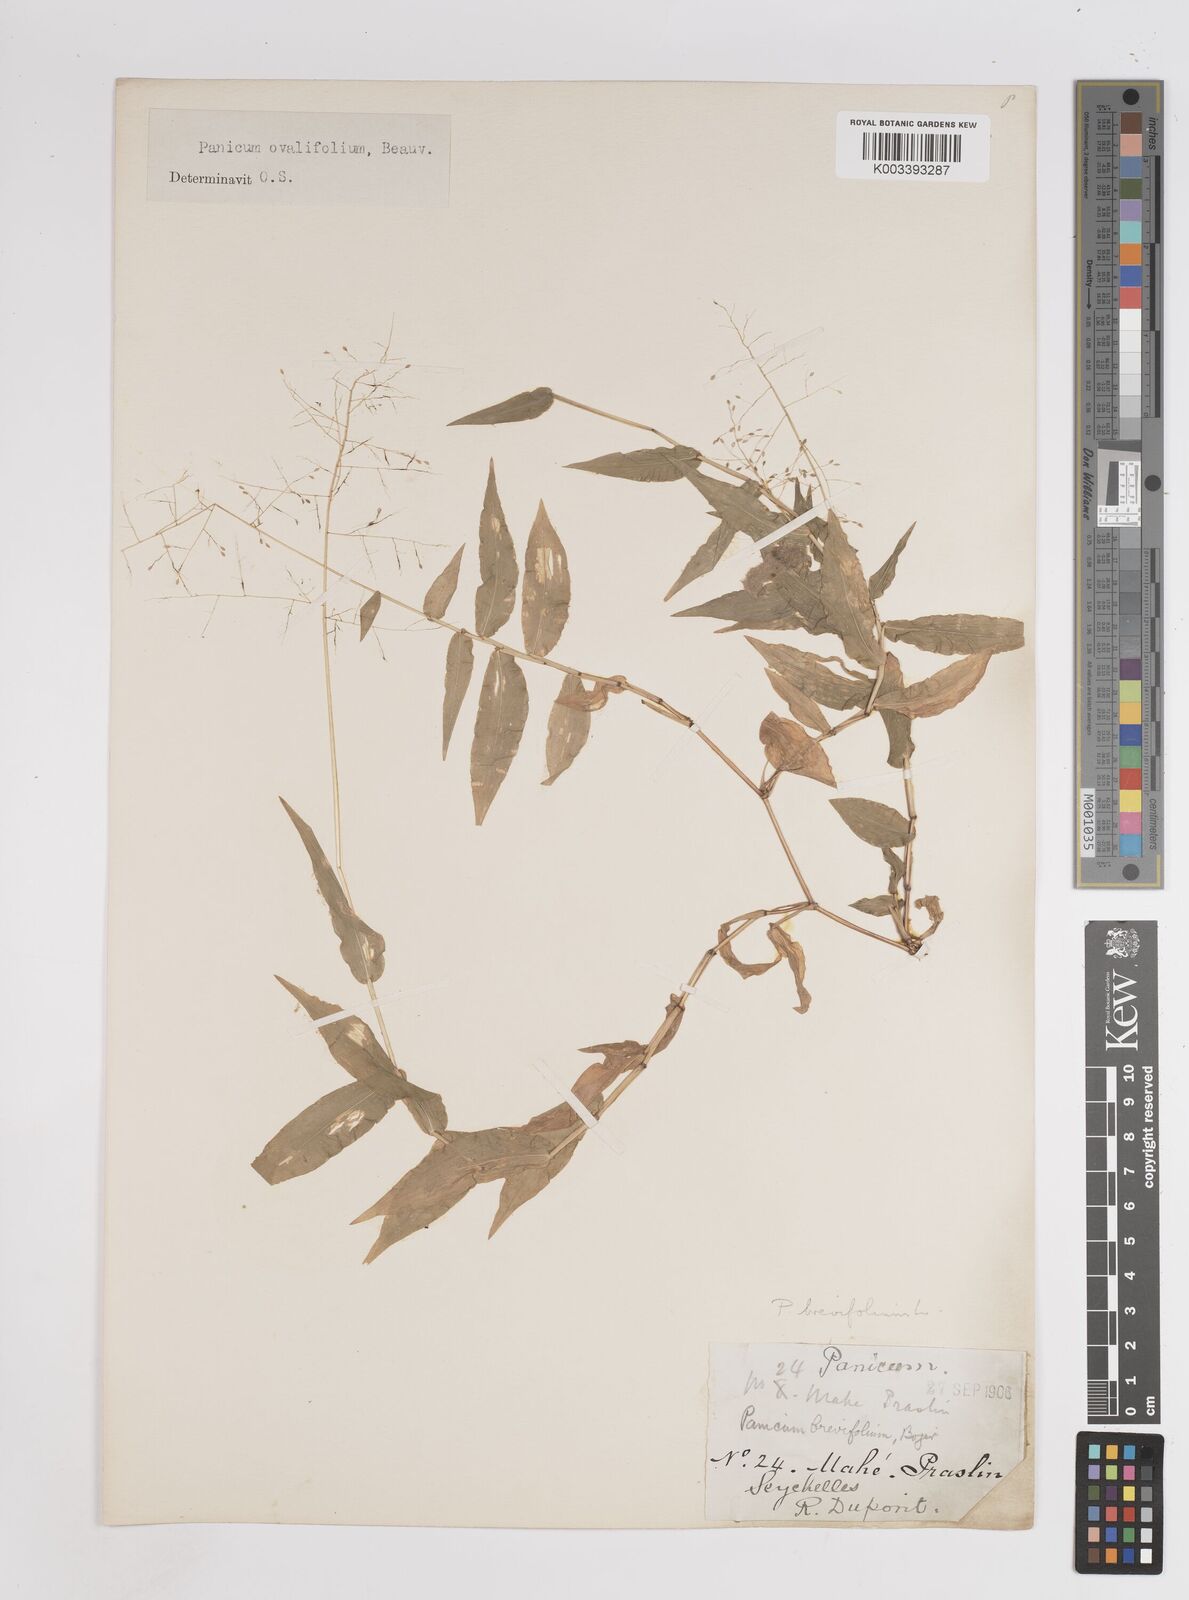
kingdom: Plantae
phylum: Tracheophyta
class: Liliopsida
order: Poales
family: Poaceae
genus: Panicum
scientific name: Panicum brevifolium
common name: Shortleaf panic grass
